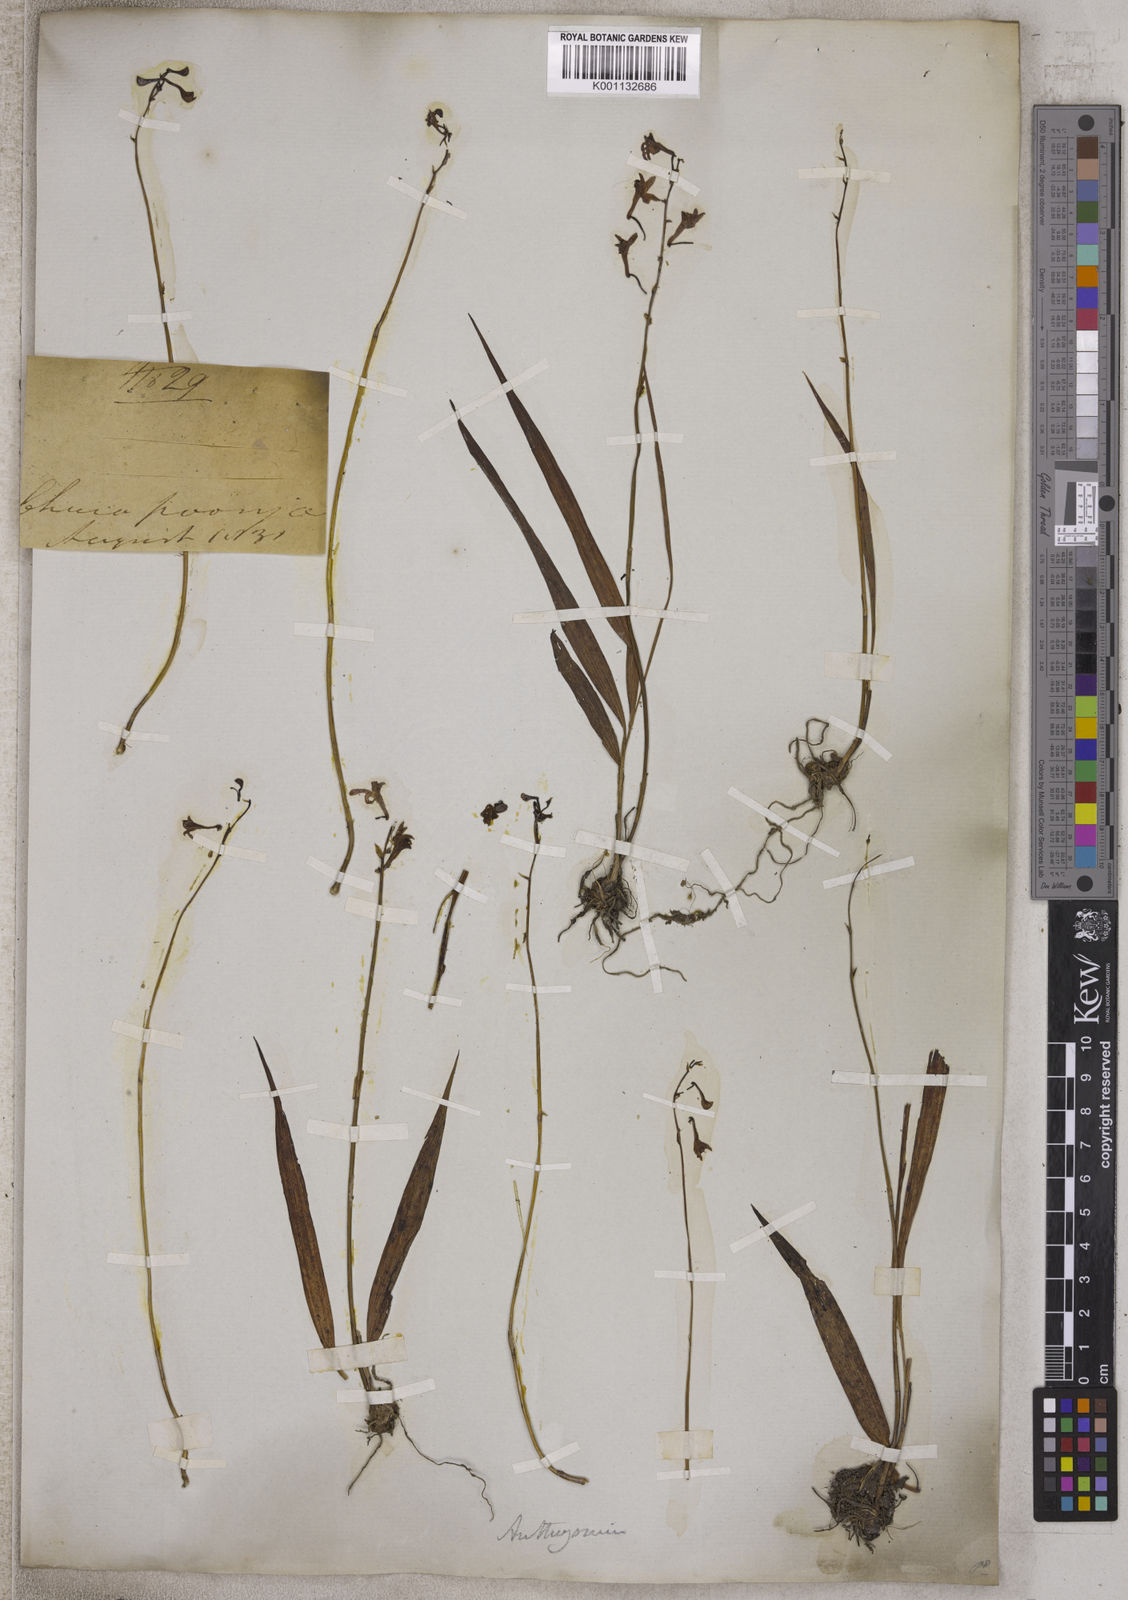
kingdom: Plantae
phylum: Tracheophyta
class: Liliopsida
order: Alismatales
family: Araceae
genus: Anthurium
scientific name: Anthurium
